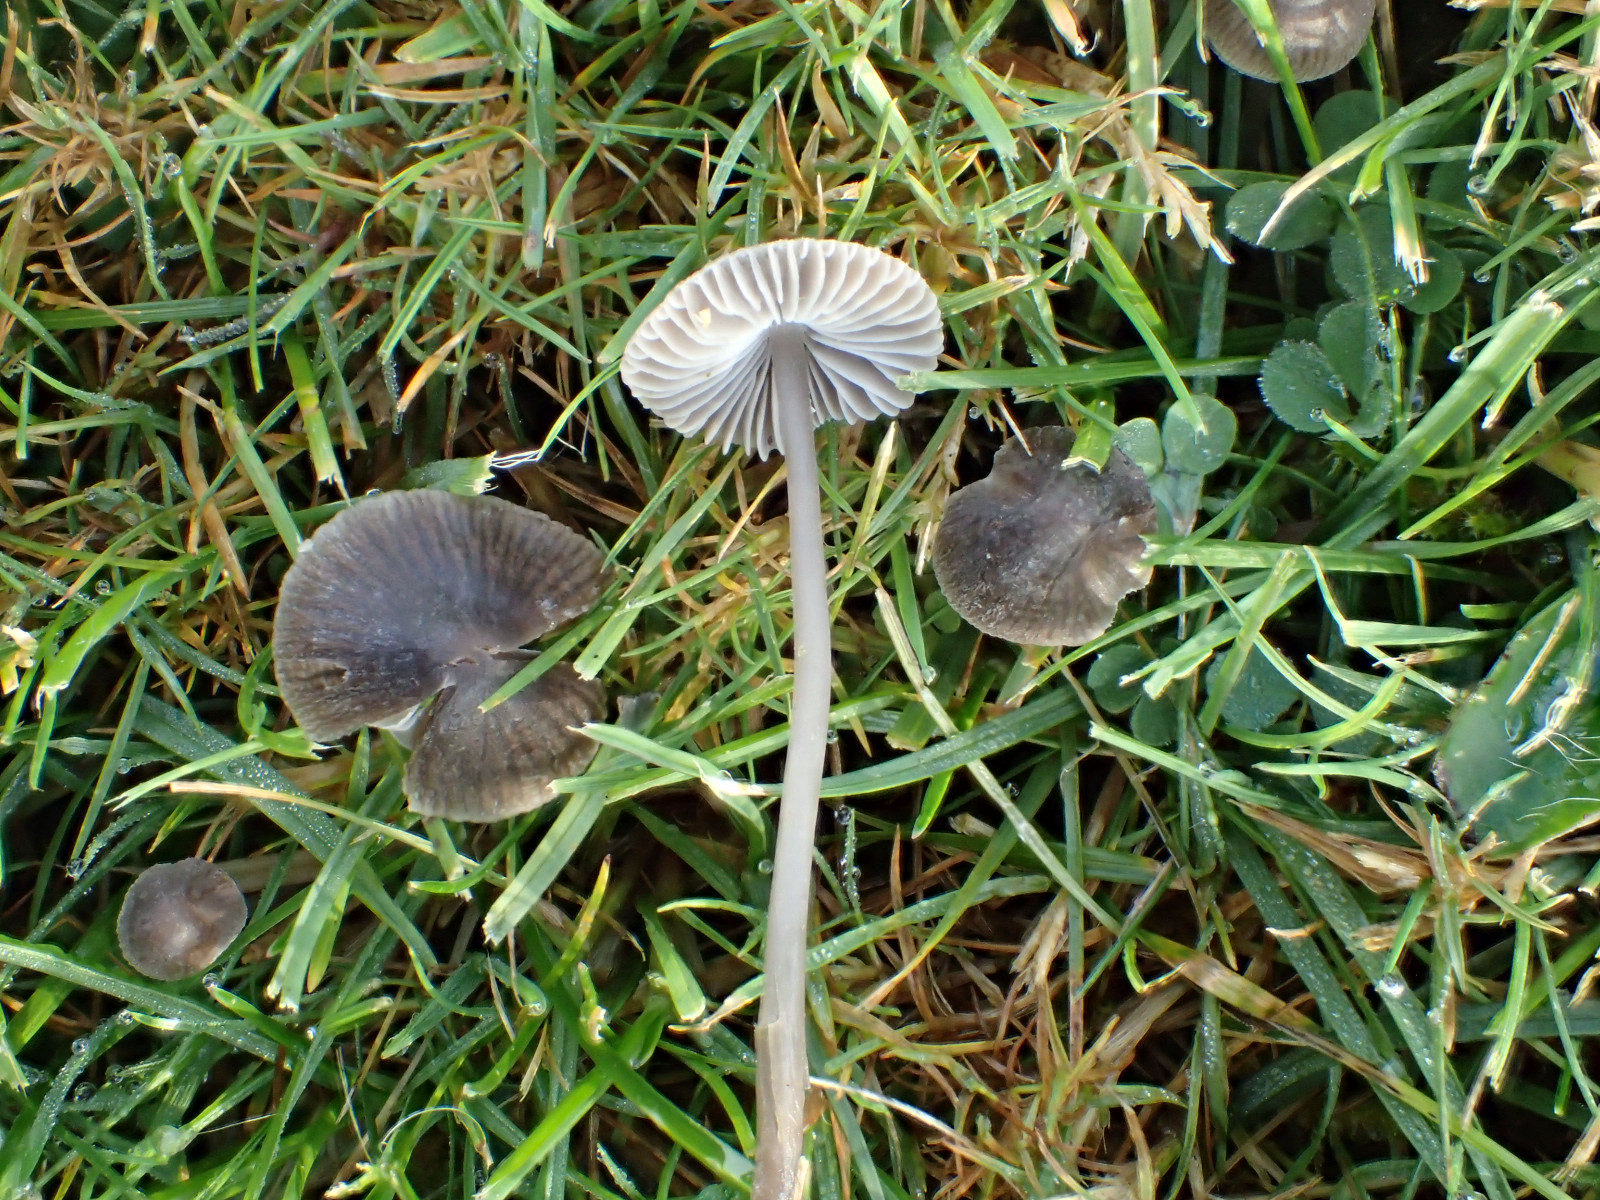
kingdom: Fungi
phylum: Basidiomycota
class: Agaricomycetes
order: Agaricales
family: Mycenaceae
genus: Mycena
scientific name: Mycena aetites
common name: plæne-huesvamp
